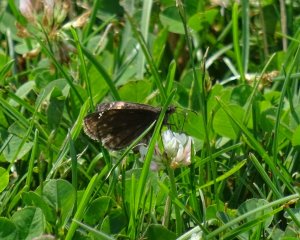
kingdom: Animalia
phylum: Arthropoda
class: Insecta
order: Lepidoptera
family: Hesperiidae
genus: Gesta
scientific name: Gesta
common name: Wild Indigo Duskywing
